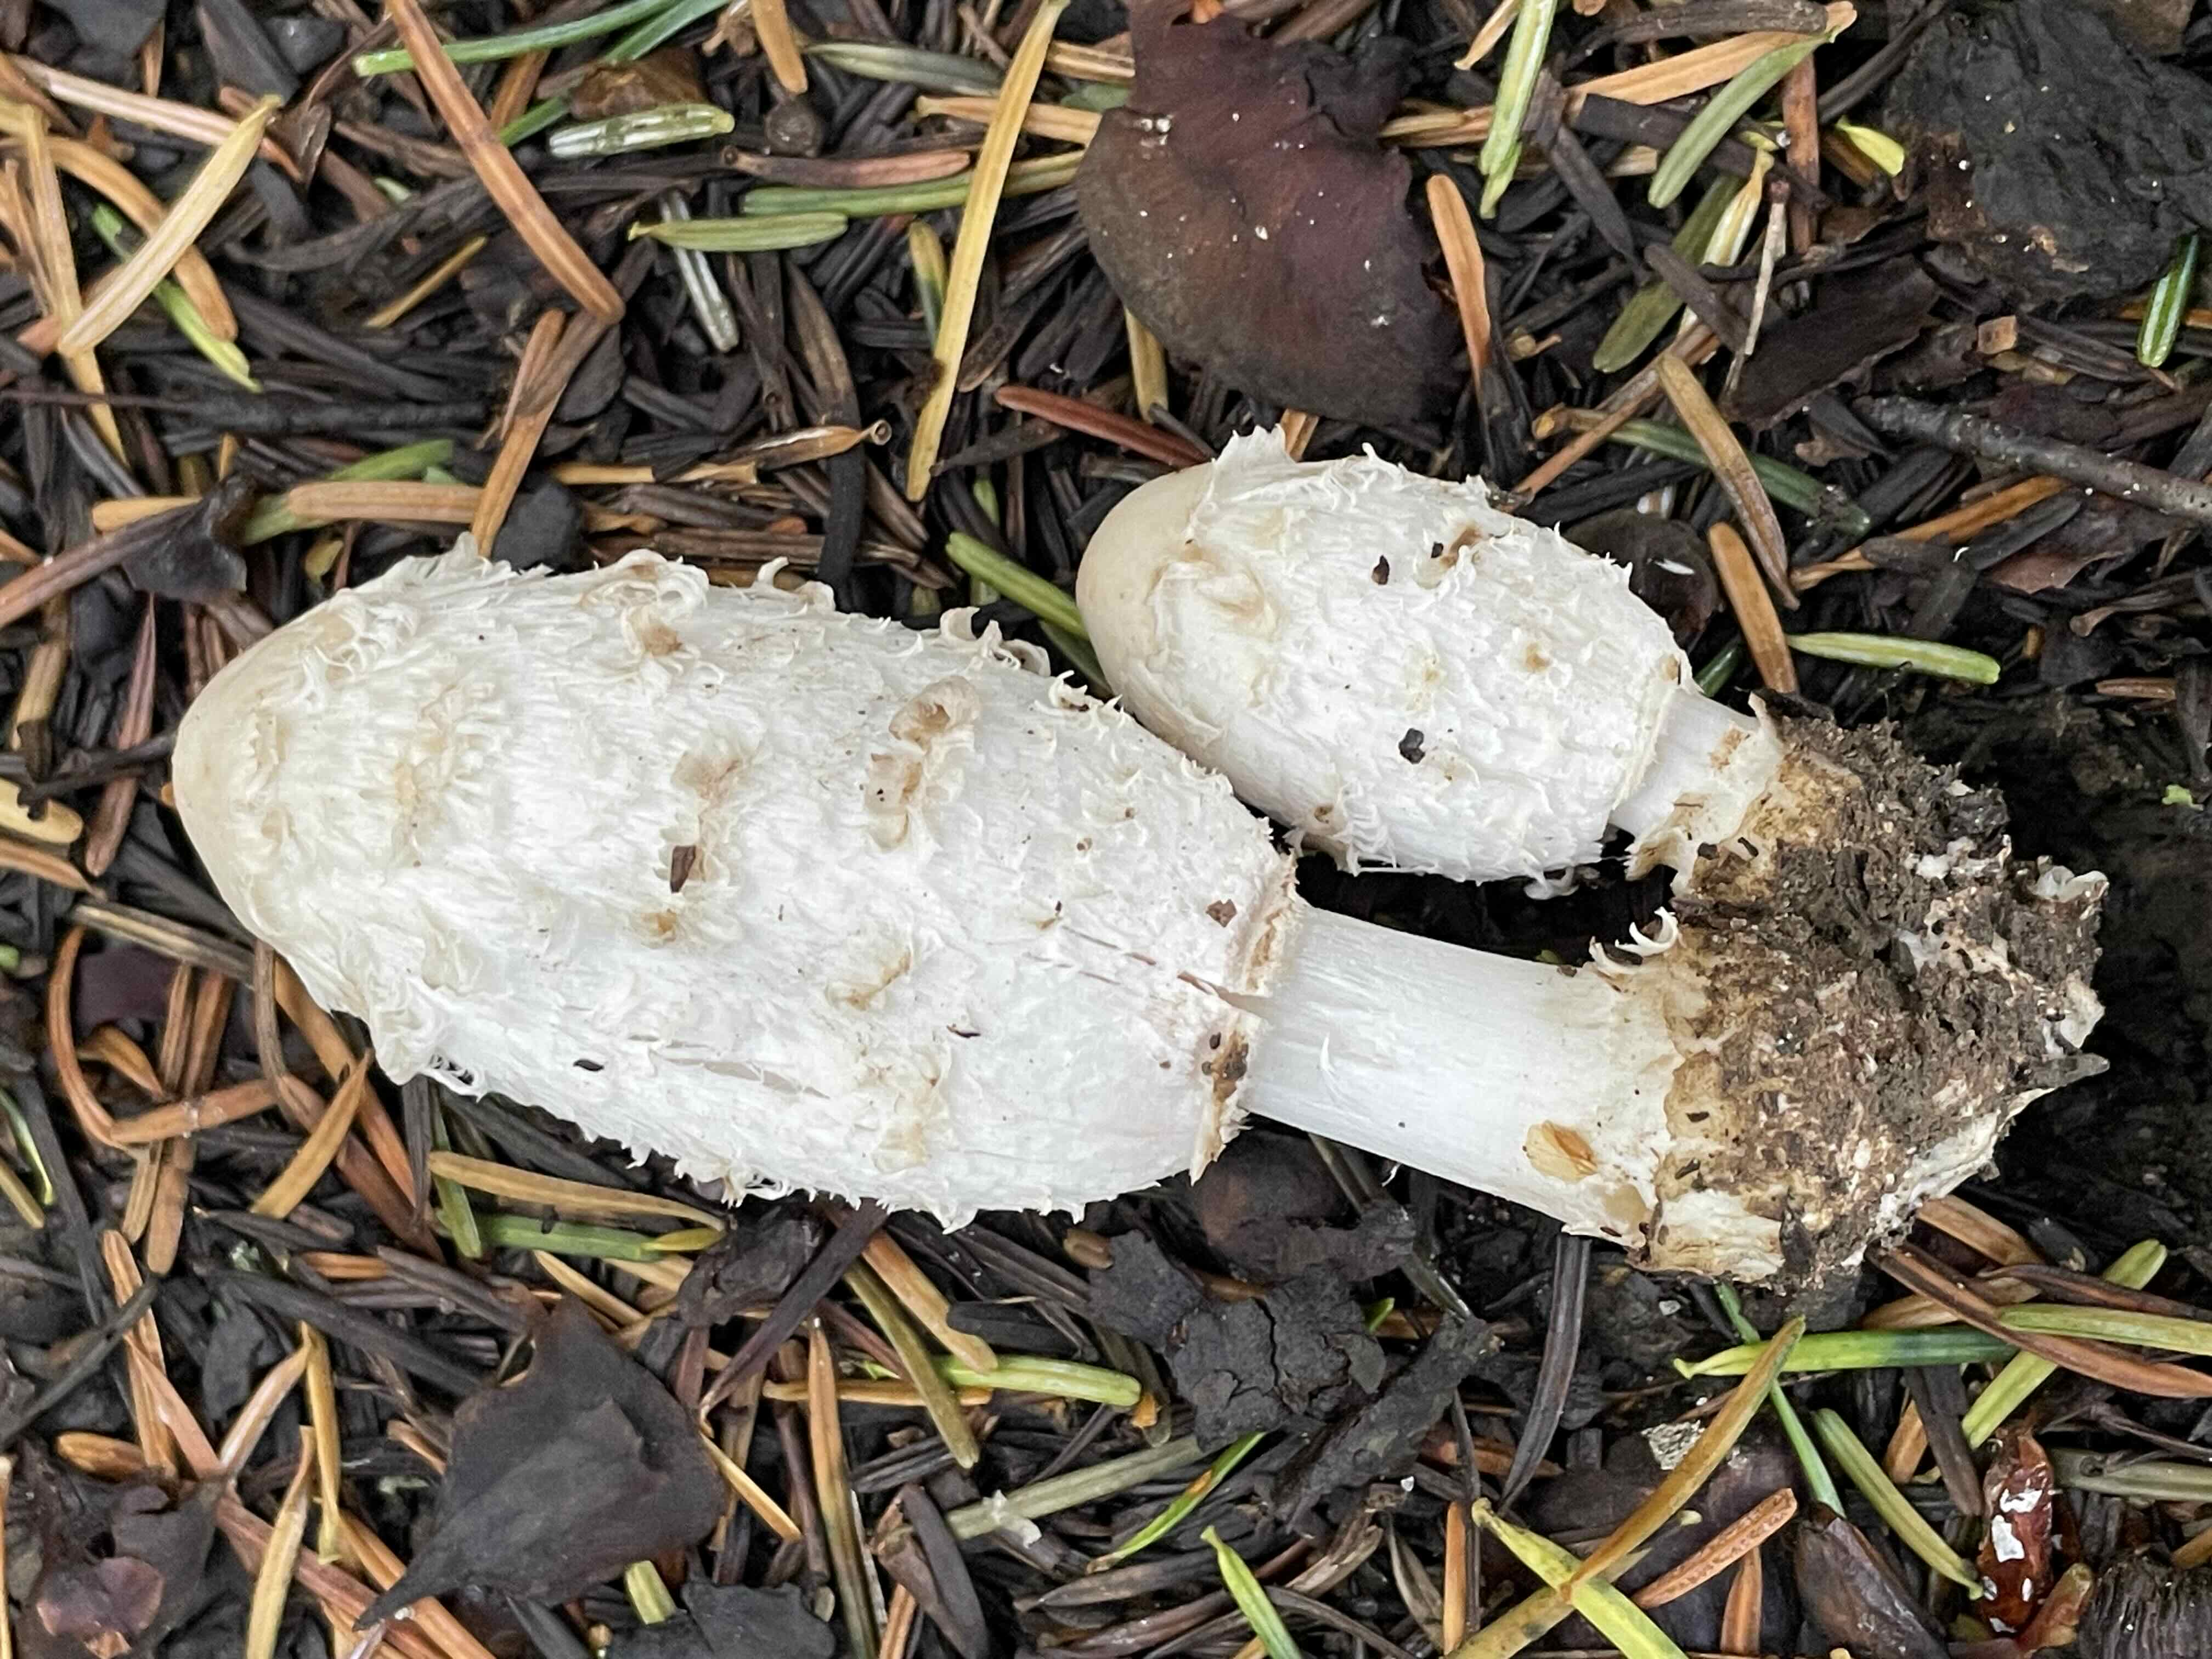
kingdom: Fungi
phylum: Basidiomycota
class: Agaricomycetes
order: Agaricales
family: Agaricaceae
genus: Coprinus
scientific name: Coprinus comatus
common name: stor parykhat
